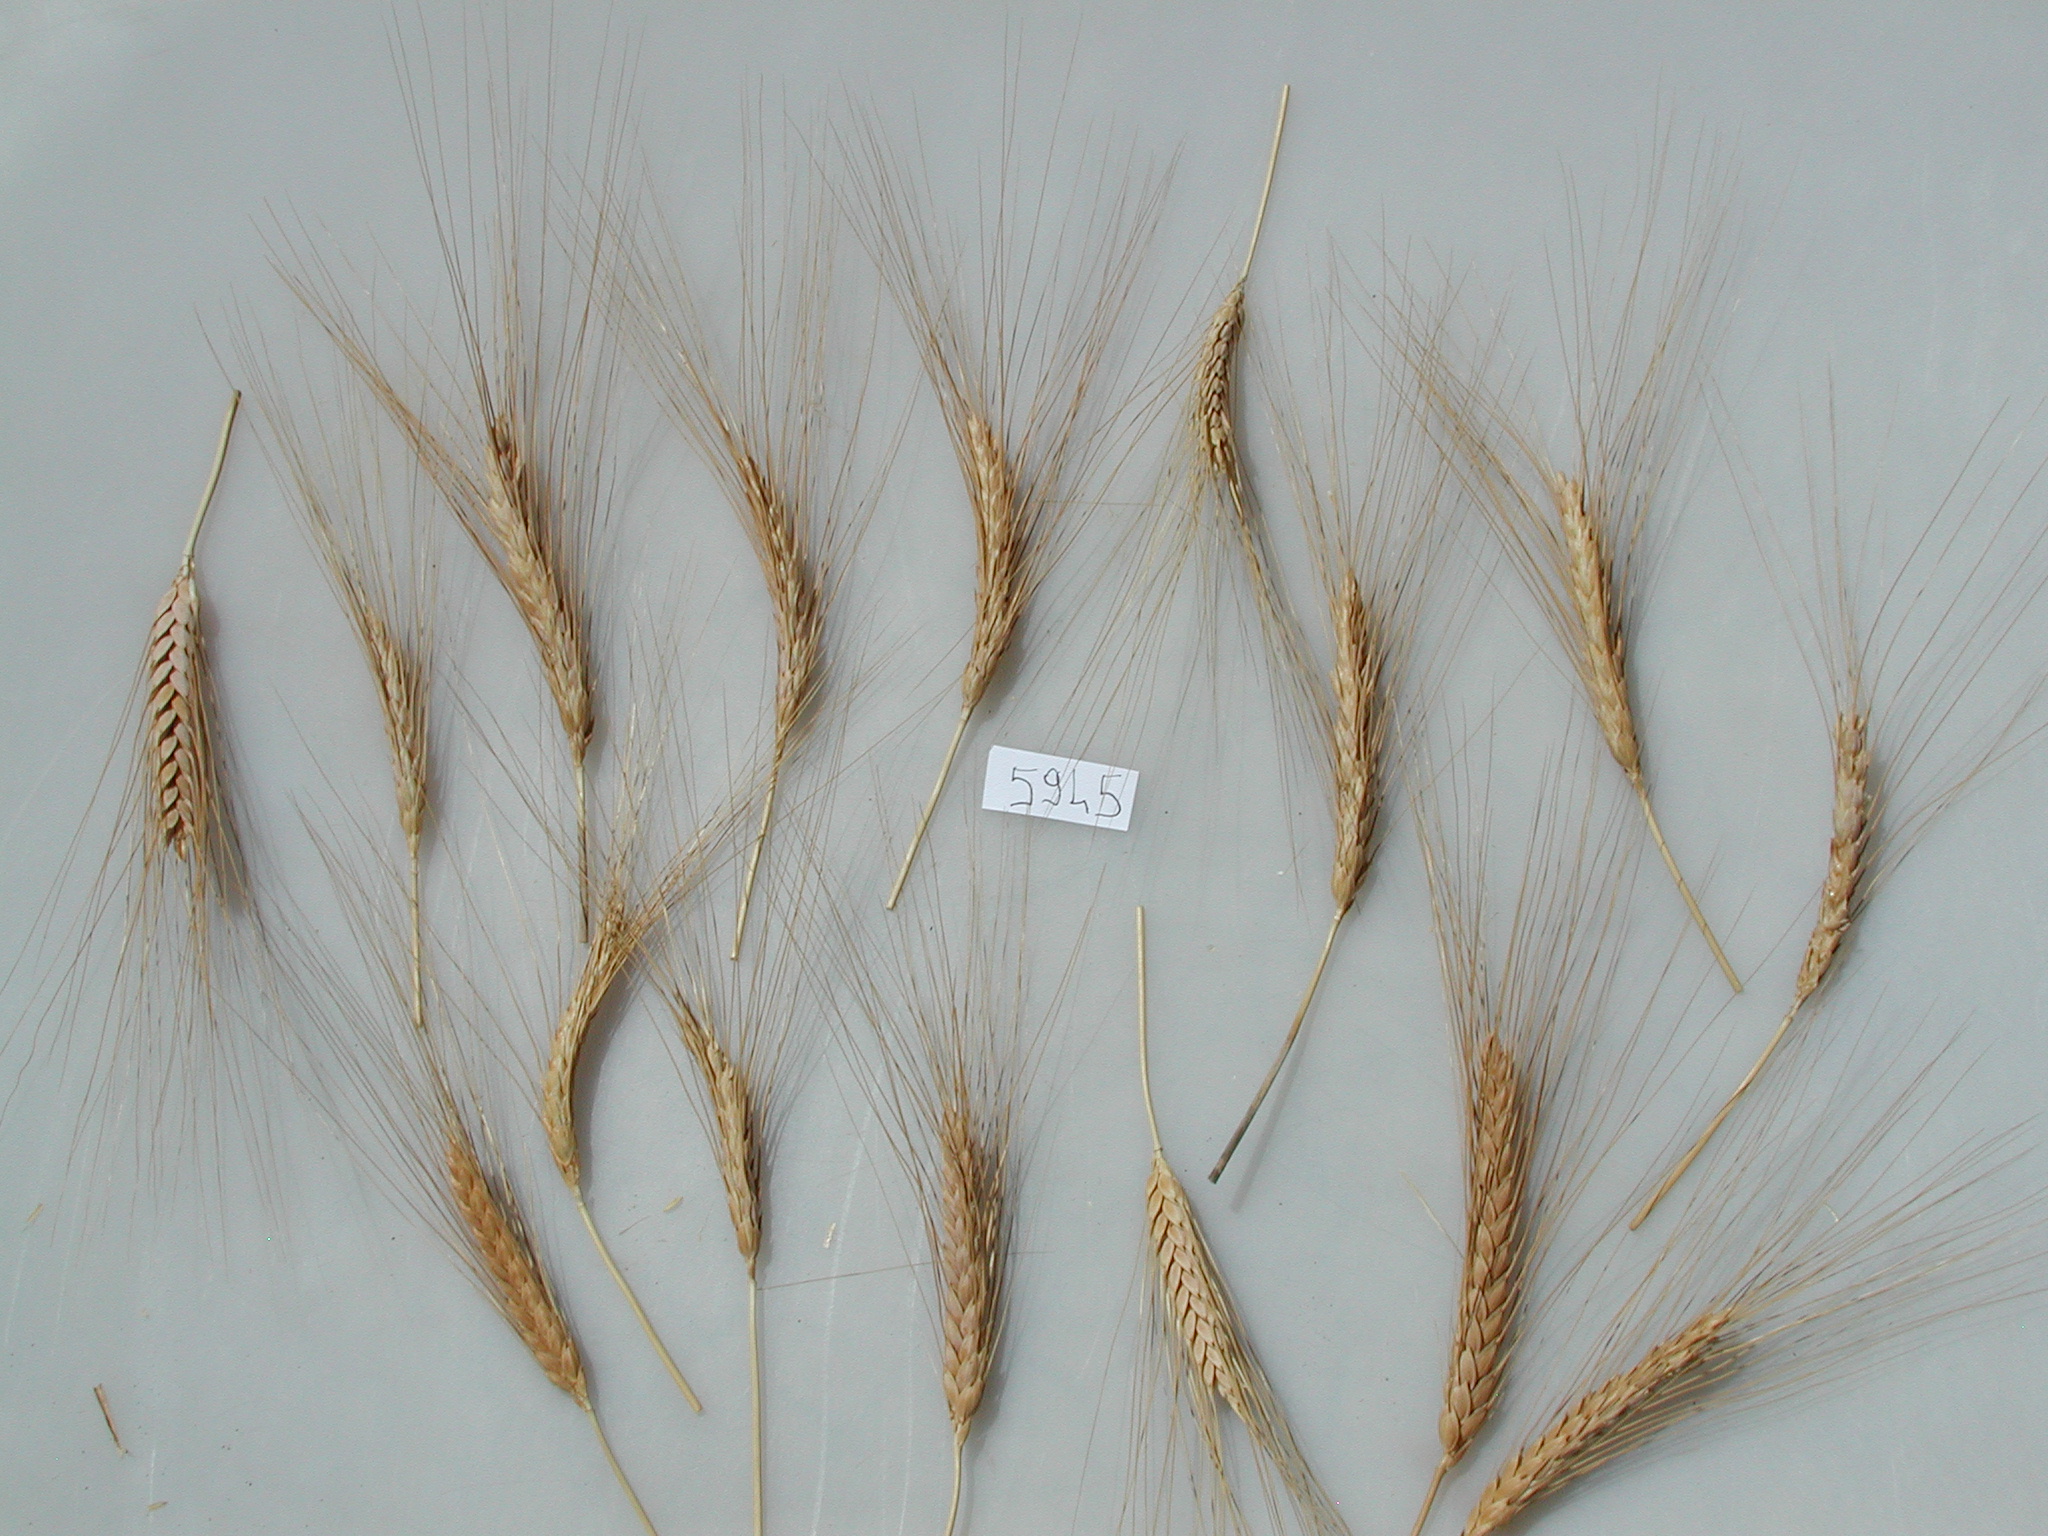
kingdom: Plantae
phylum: Tracheophyta
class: Liliopsida
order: Poales
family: Poaceae
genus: Triticum
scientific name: Triticum turgidum
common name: Wheat
